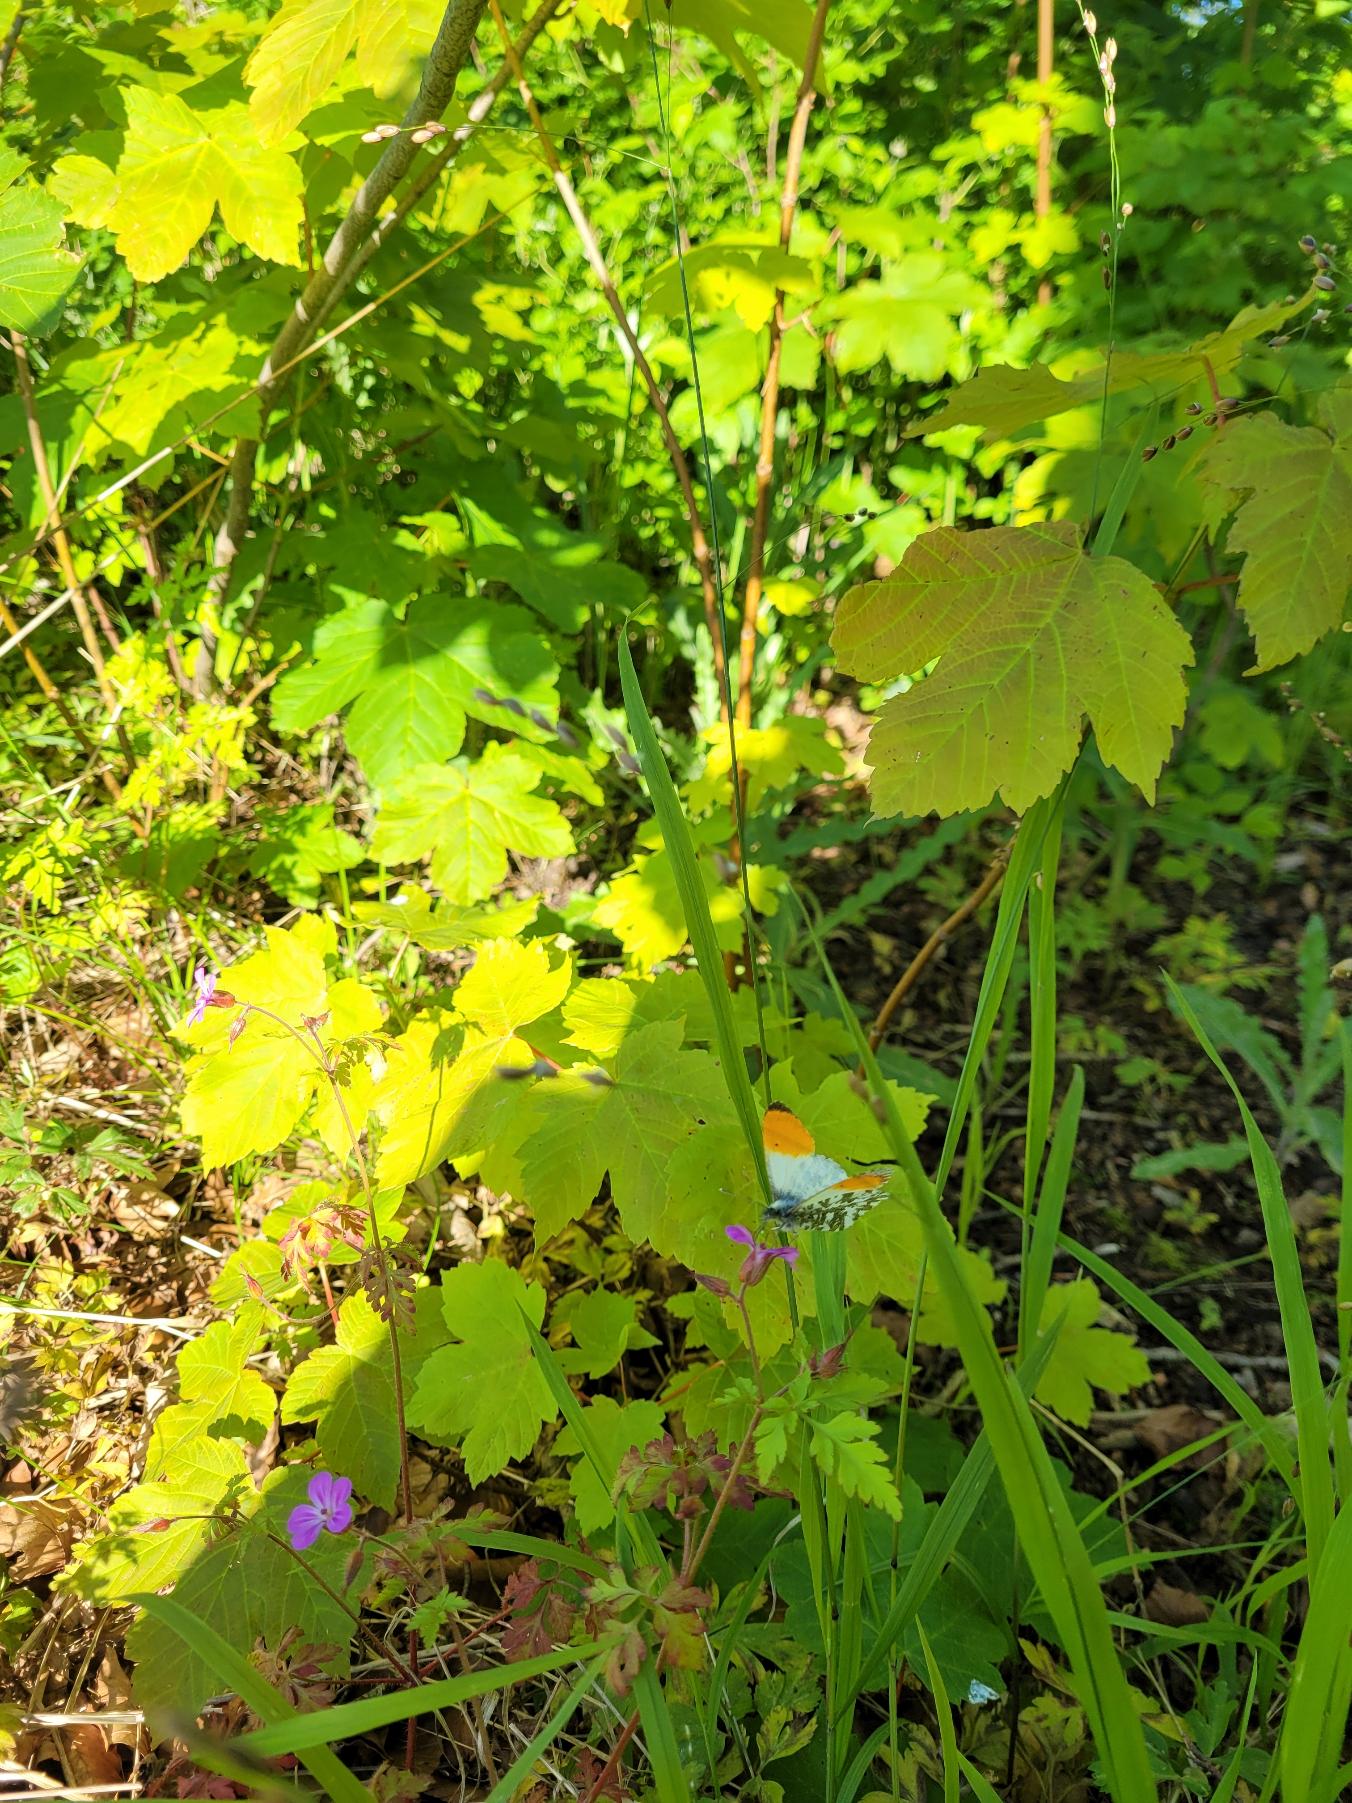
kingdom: Animalia
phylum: Arthropoda
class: Insecta
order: Lepidoptera
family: Pieridae
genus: Anthocharis
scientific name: Anthocharis cardamines
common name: Aurora
